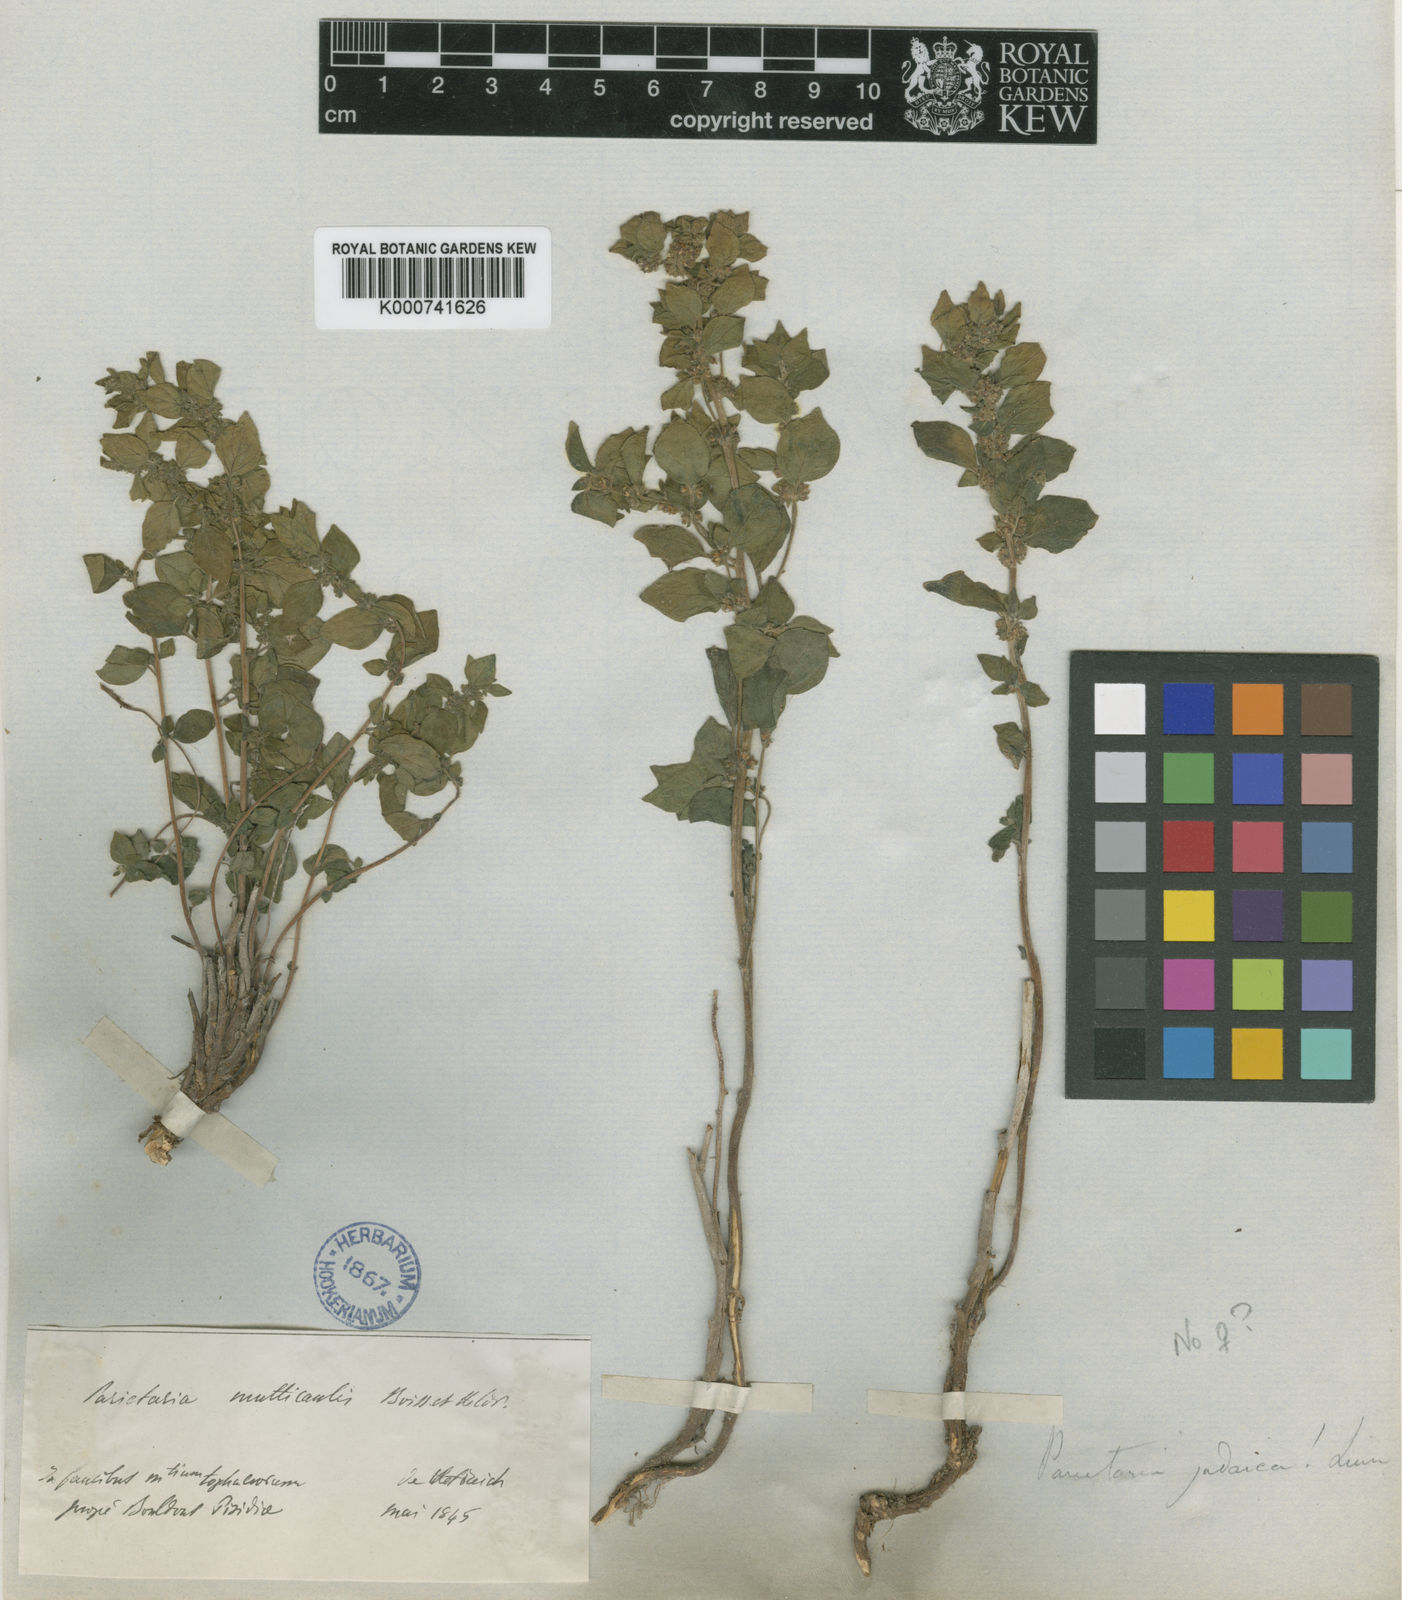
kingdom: Plantae
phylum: Tracheophyta
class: Magnoliopsida
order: Rosales
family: Urticaceae
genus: Parietaria
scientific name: Parietaria judaica
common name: Pellitory-of-the-wall
